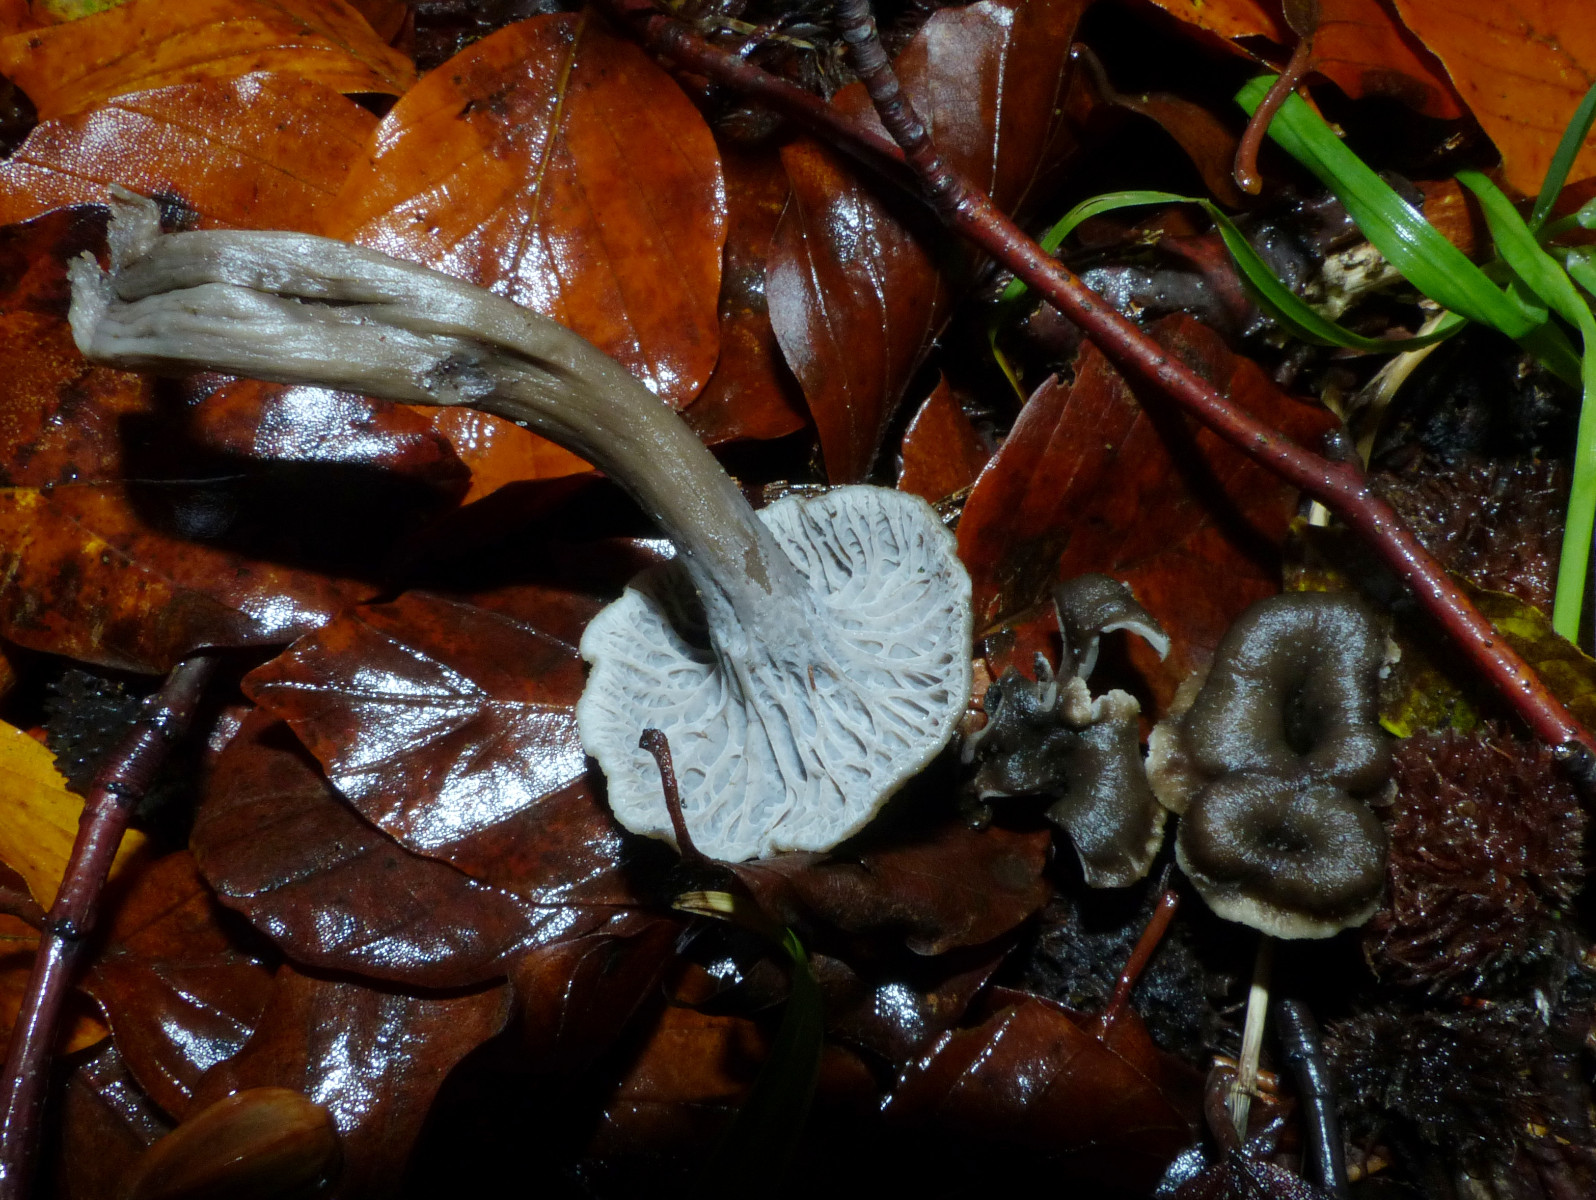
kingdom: Fungi
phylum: Basidiomycota
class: Agaricomycetes
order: Cantharellales
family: Hydnaceae
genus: Cantharellus
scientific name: Cantharellus cinereus
